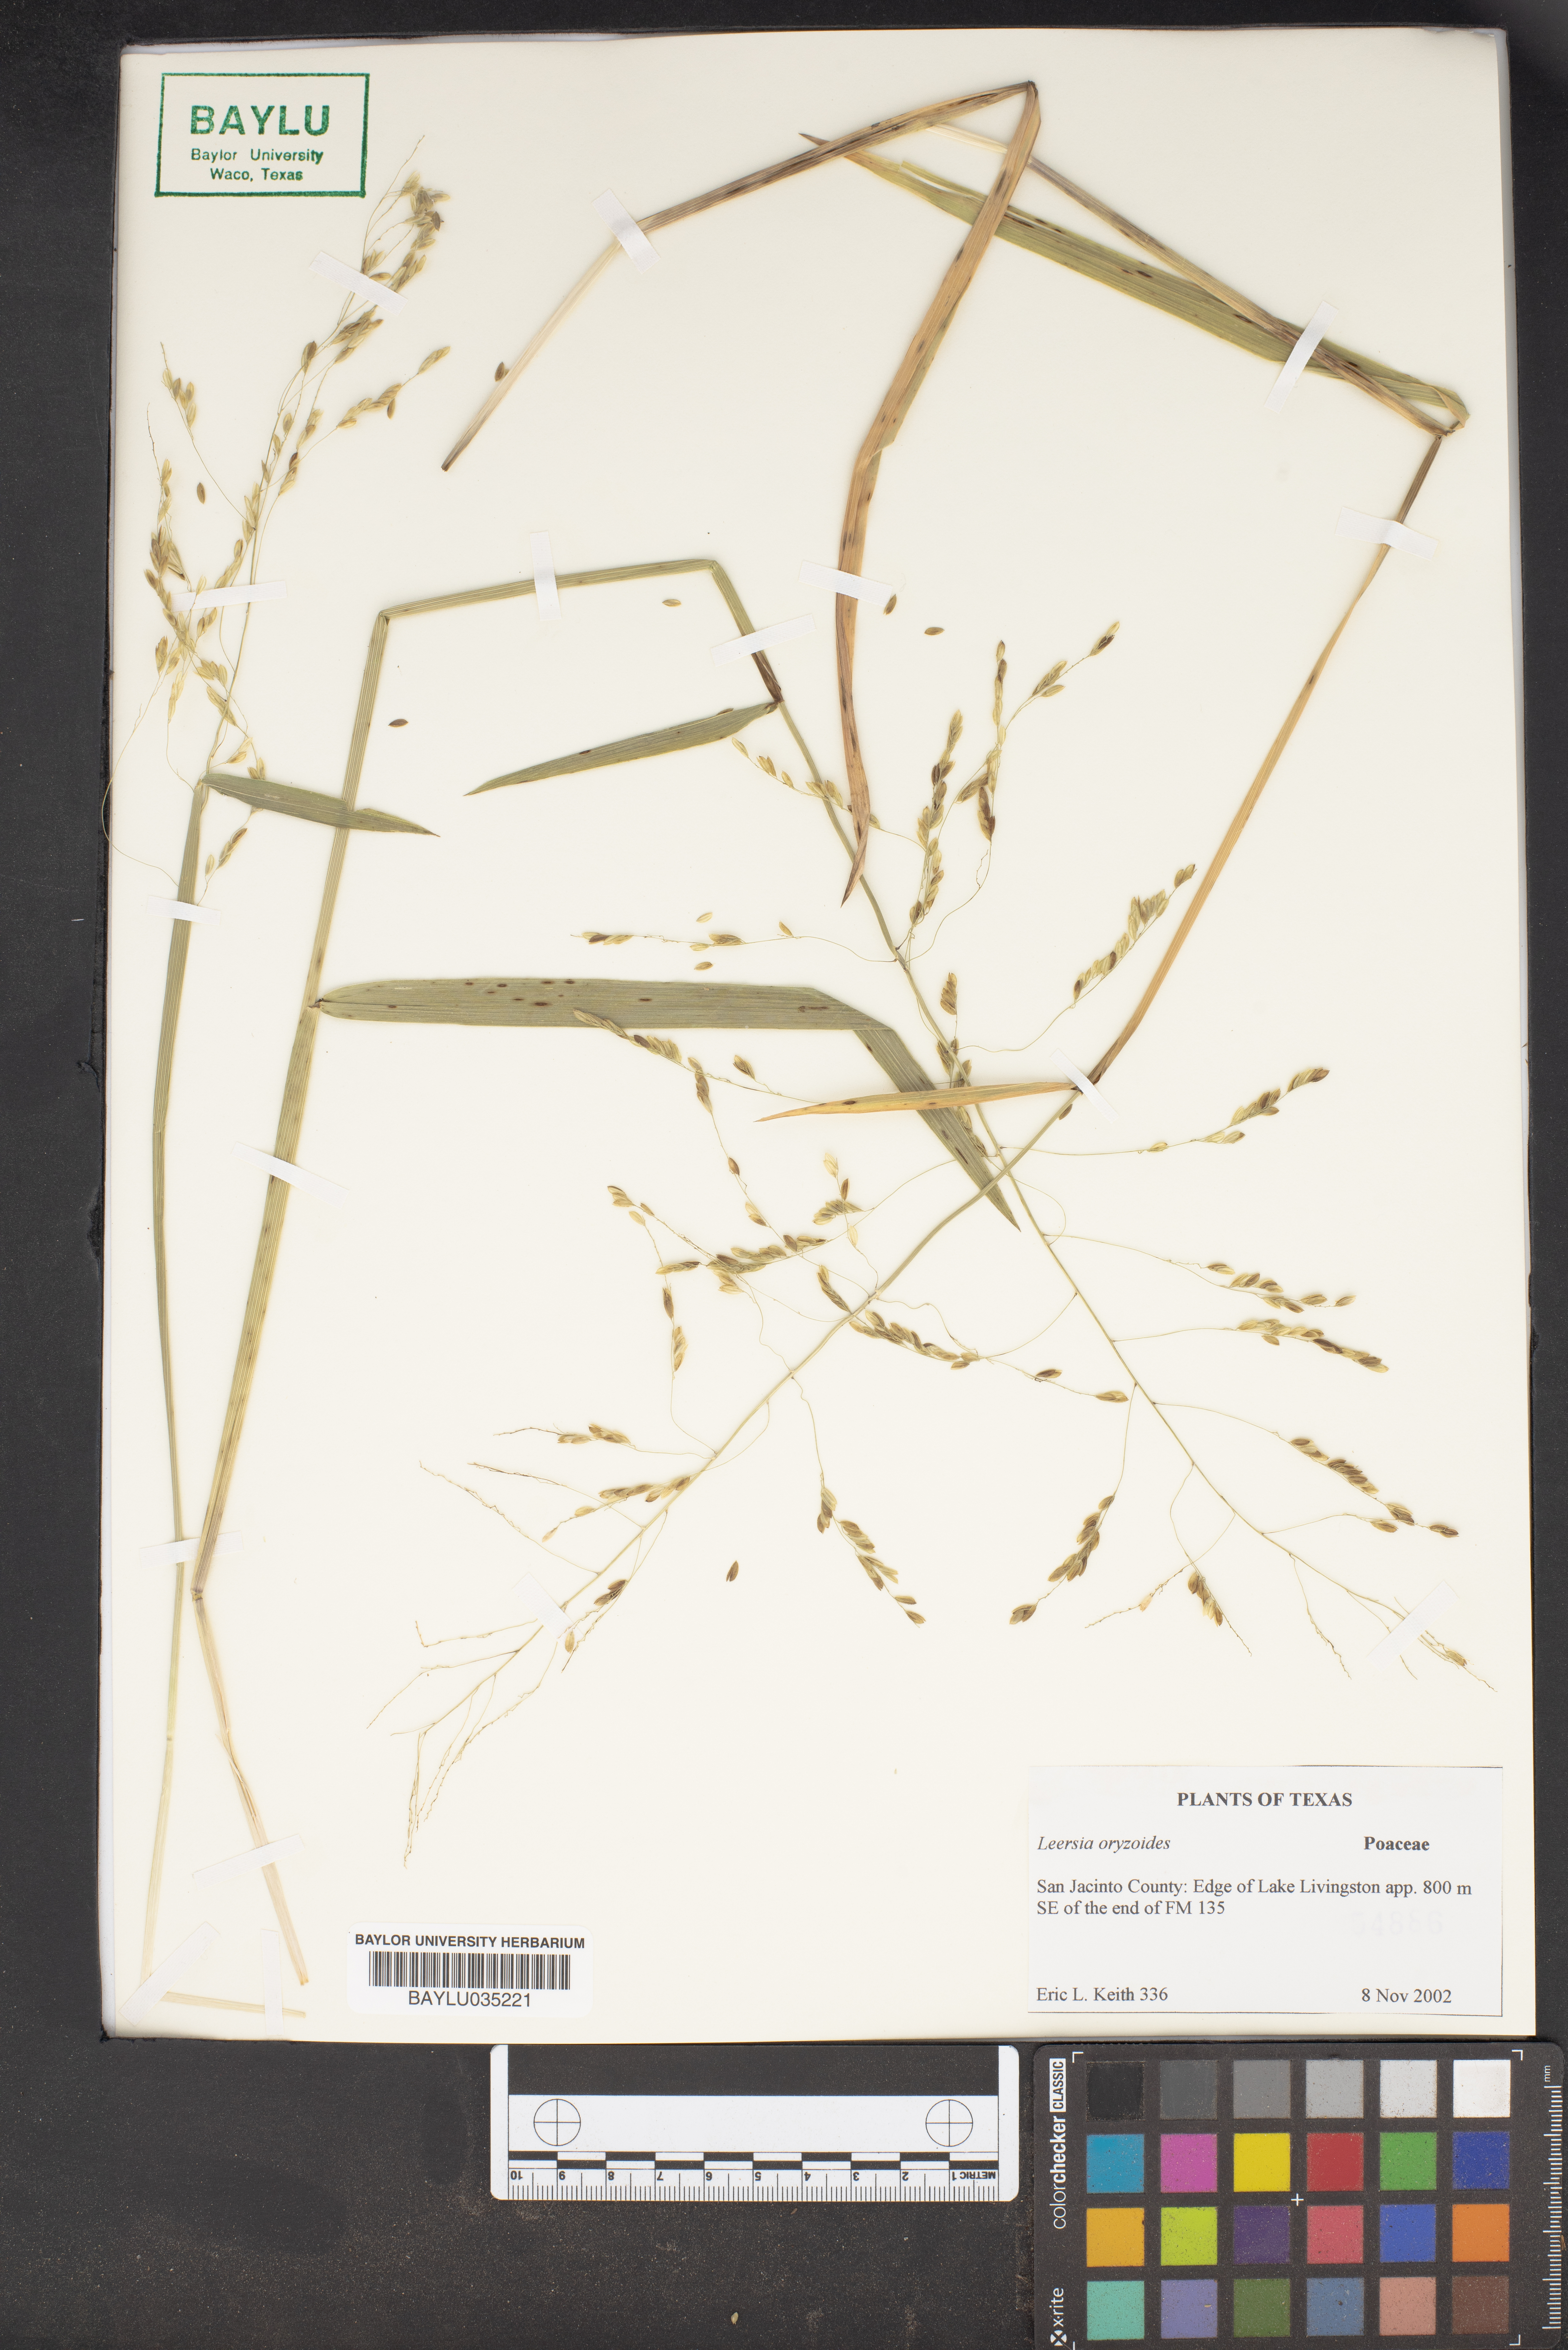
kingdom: Plantae
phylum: Tracheophyta
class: Liliopsida
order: Poales
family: Poaceae
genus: Leersia
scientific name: Leersia oryzoides
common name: Cut-grass
